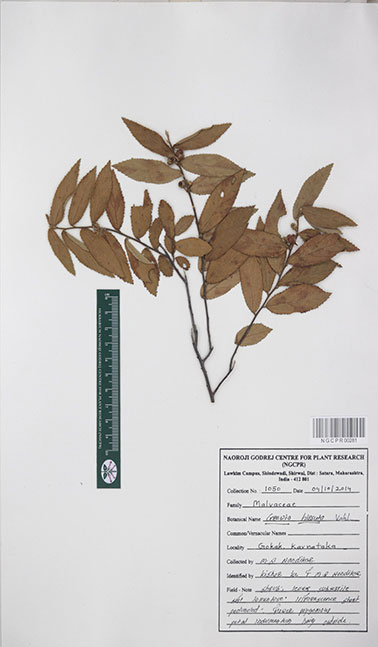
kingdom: Plantae
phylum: Tracheophyta
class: Magnoliopsida
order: Malvales
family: Malvaceae
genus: Grewia
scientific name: Grewia hirsuta
